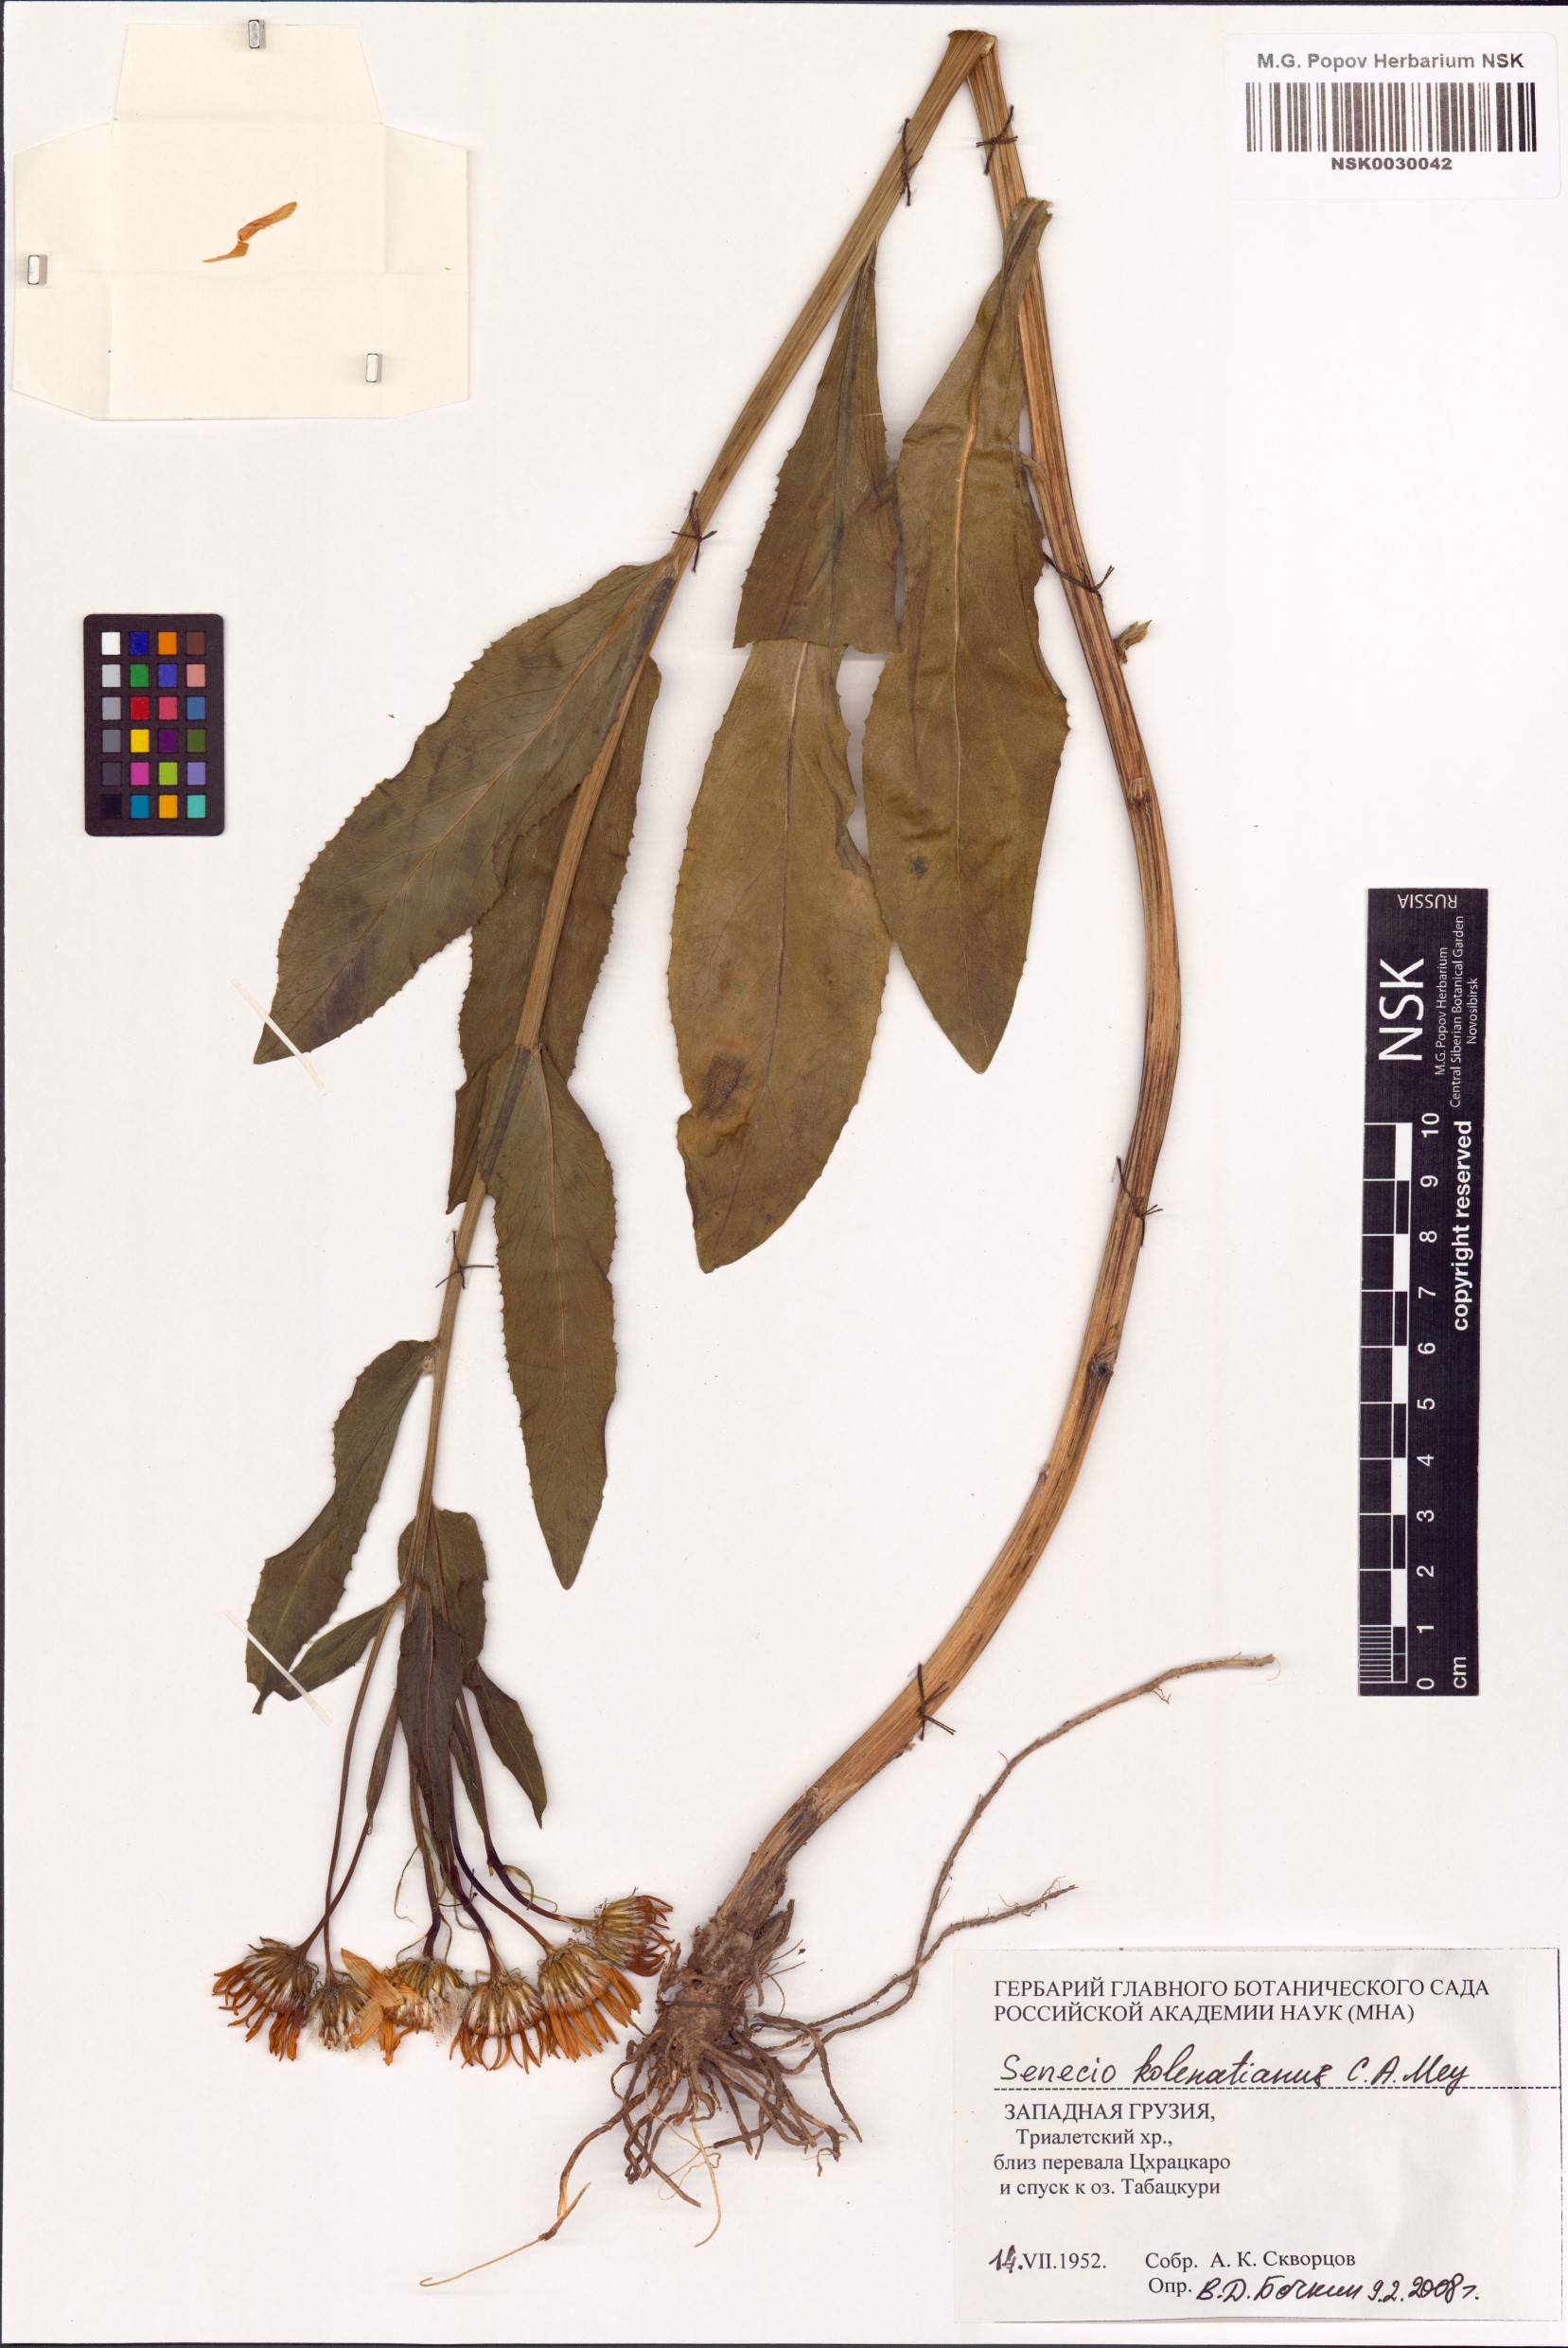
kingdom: Plantae
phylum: Tracheophyta
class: Magnoliopsida
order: Asterales
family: Asteraceae
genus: Senecio
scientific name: Senecio kolenatianus
